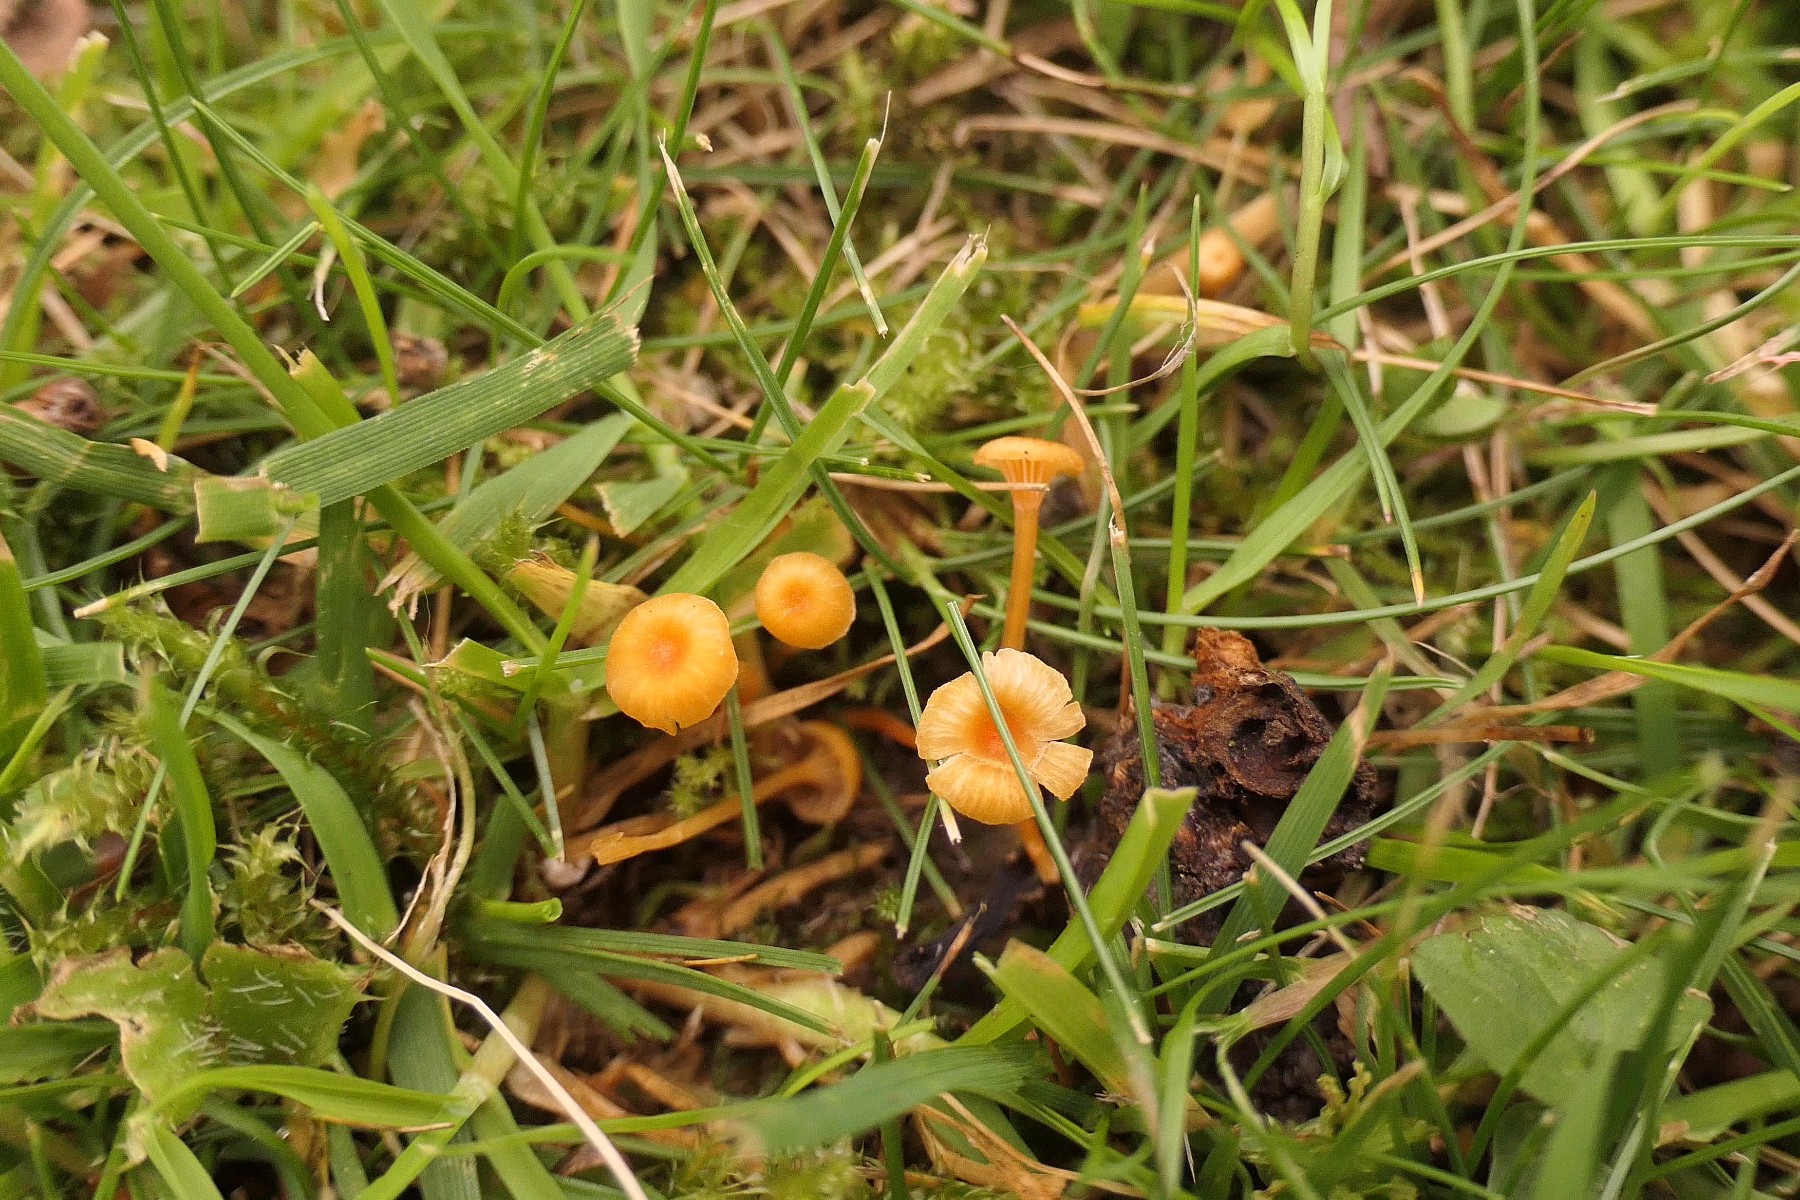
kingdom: Fungi
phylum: Basidiomycota
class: Agaricomycetes
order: Hymenochaetales
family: Rickenellaceae
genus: Rickenella
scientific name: Rickenella fibula
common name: orange mosnavlehat
